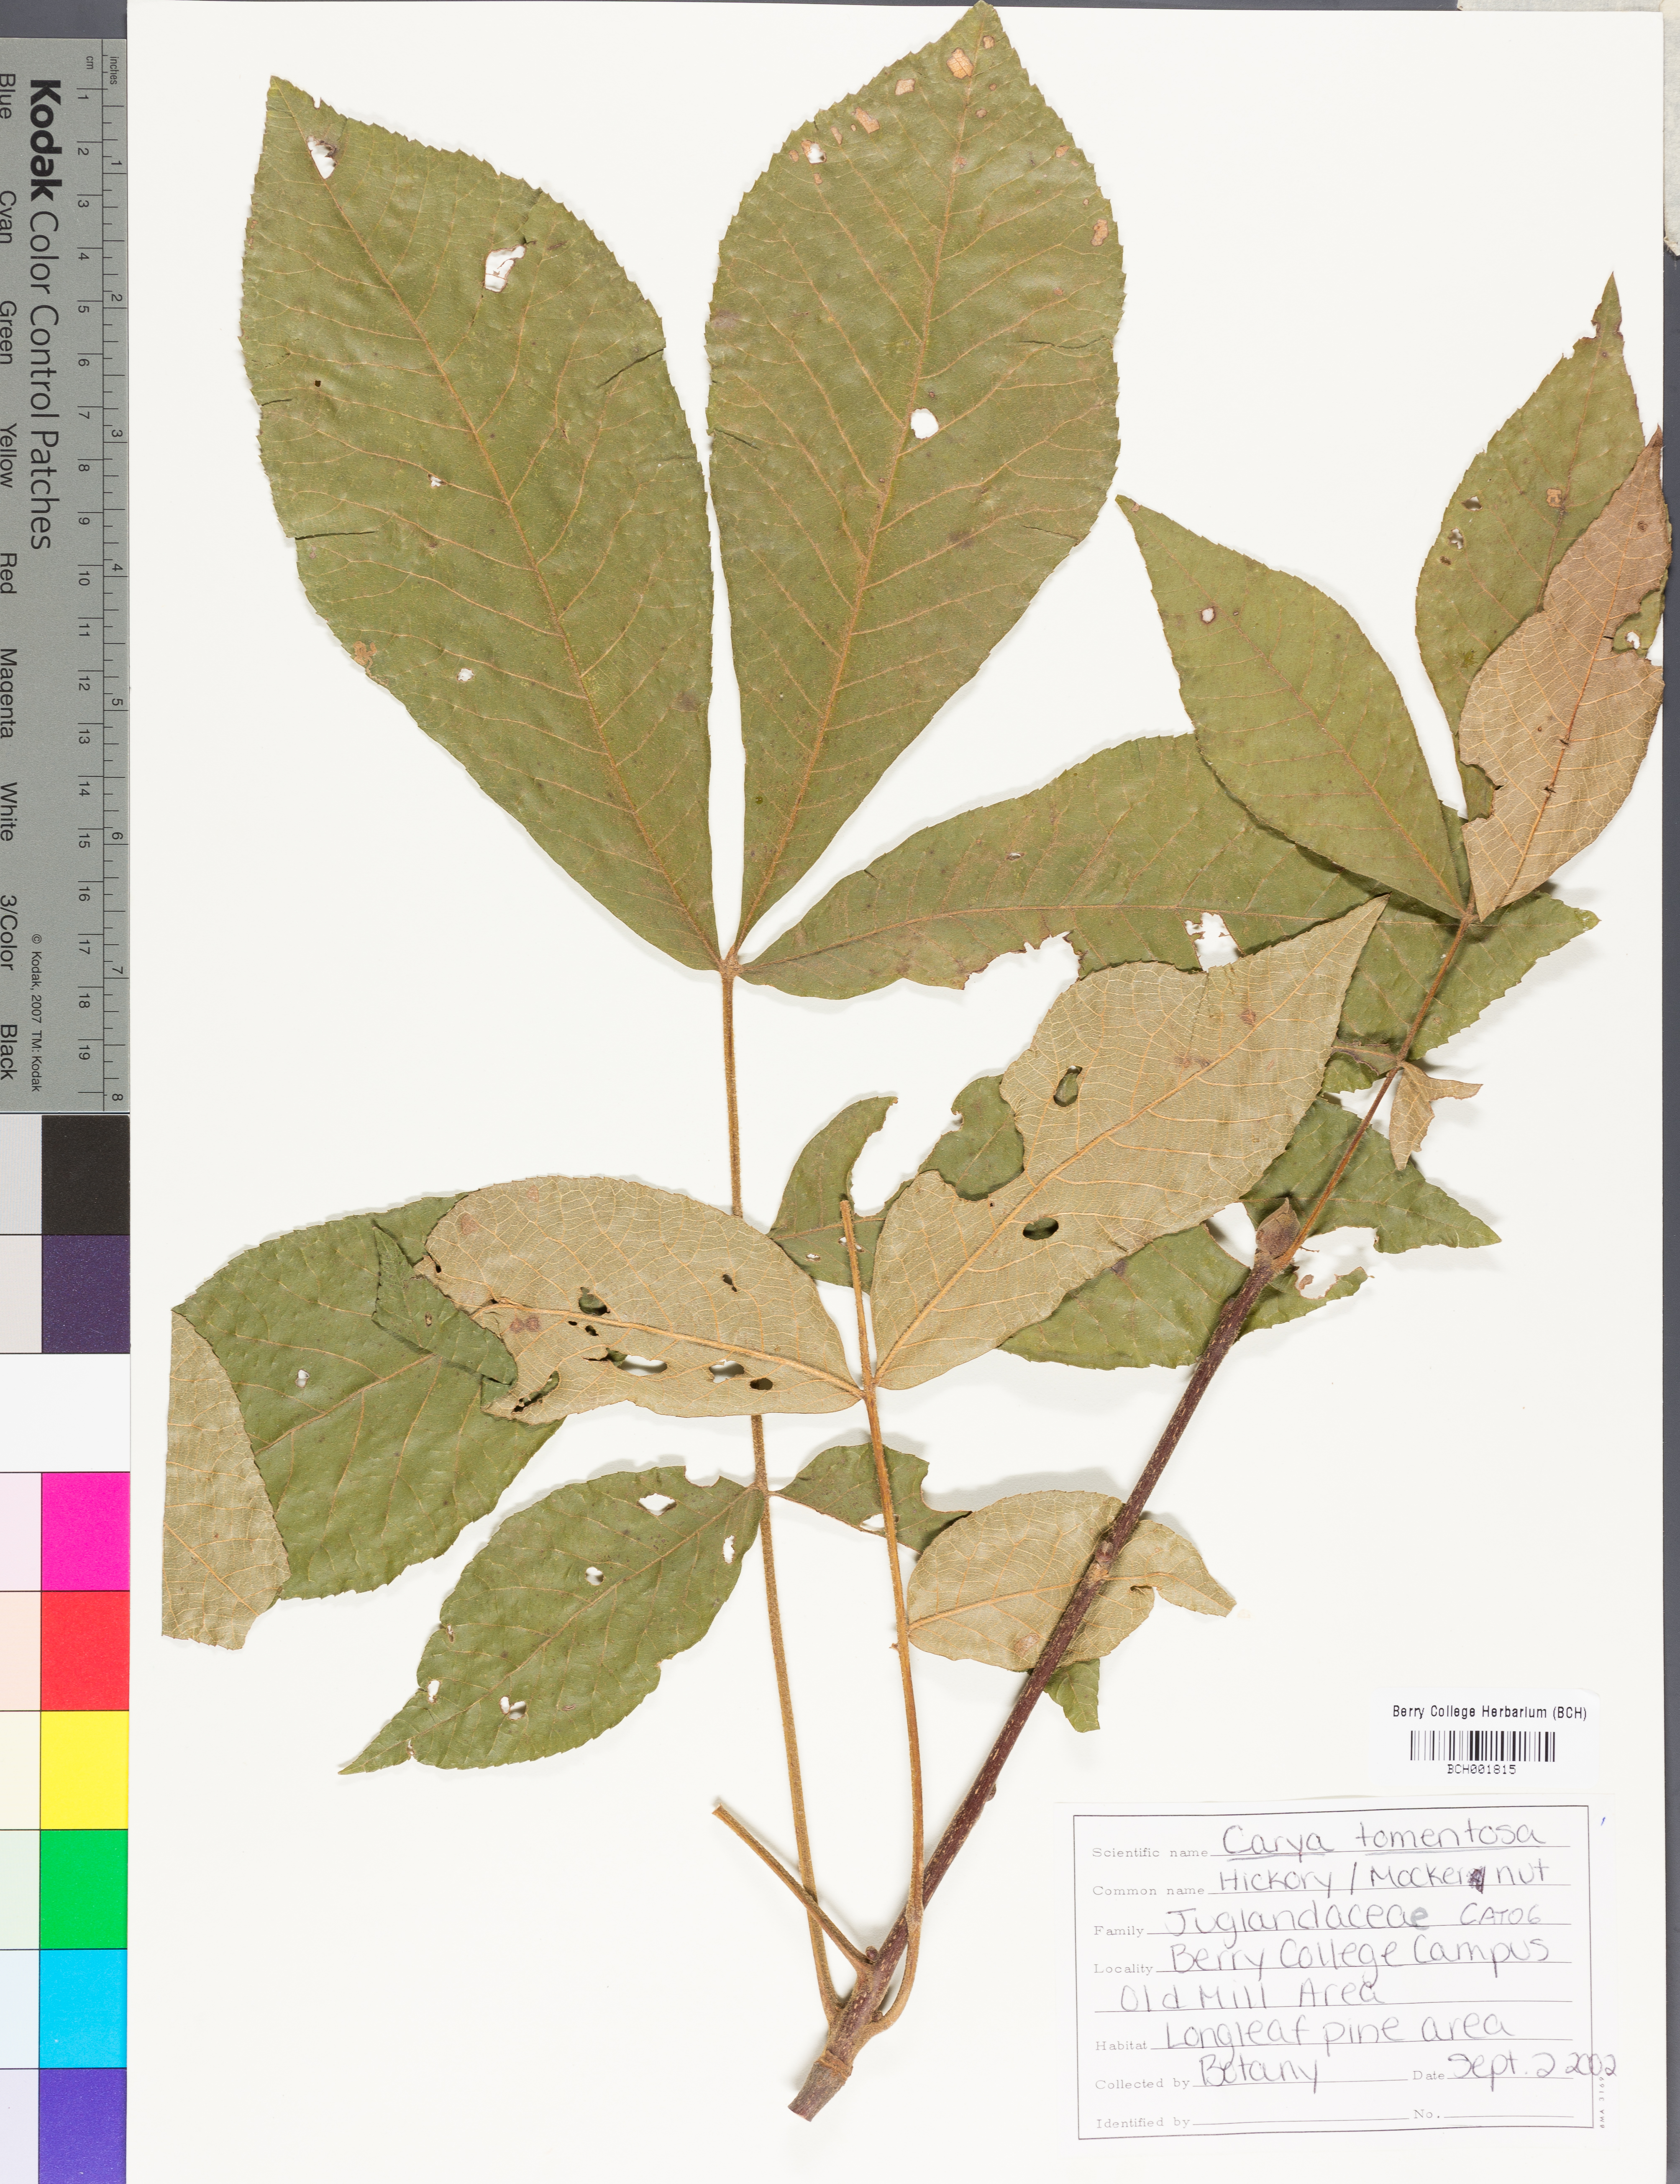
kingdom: Plantae
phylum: Tracheophyta
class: Magnoliopsida
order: Fagales
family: Juglandaceae
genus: Carya
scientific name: Carya alba
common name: Mockernut hickory
